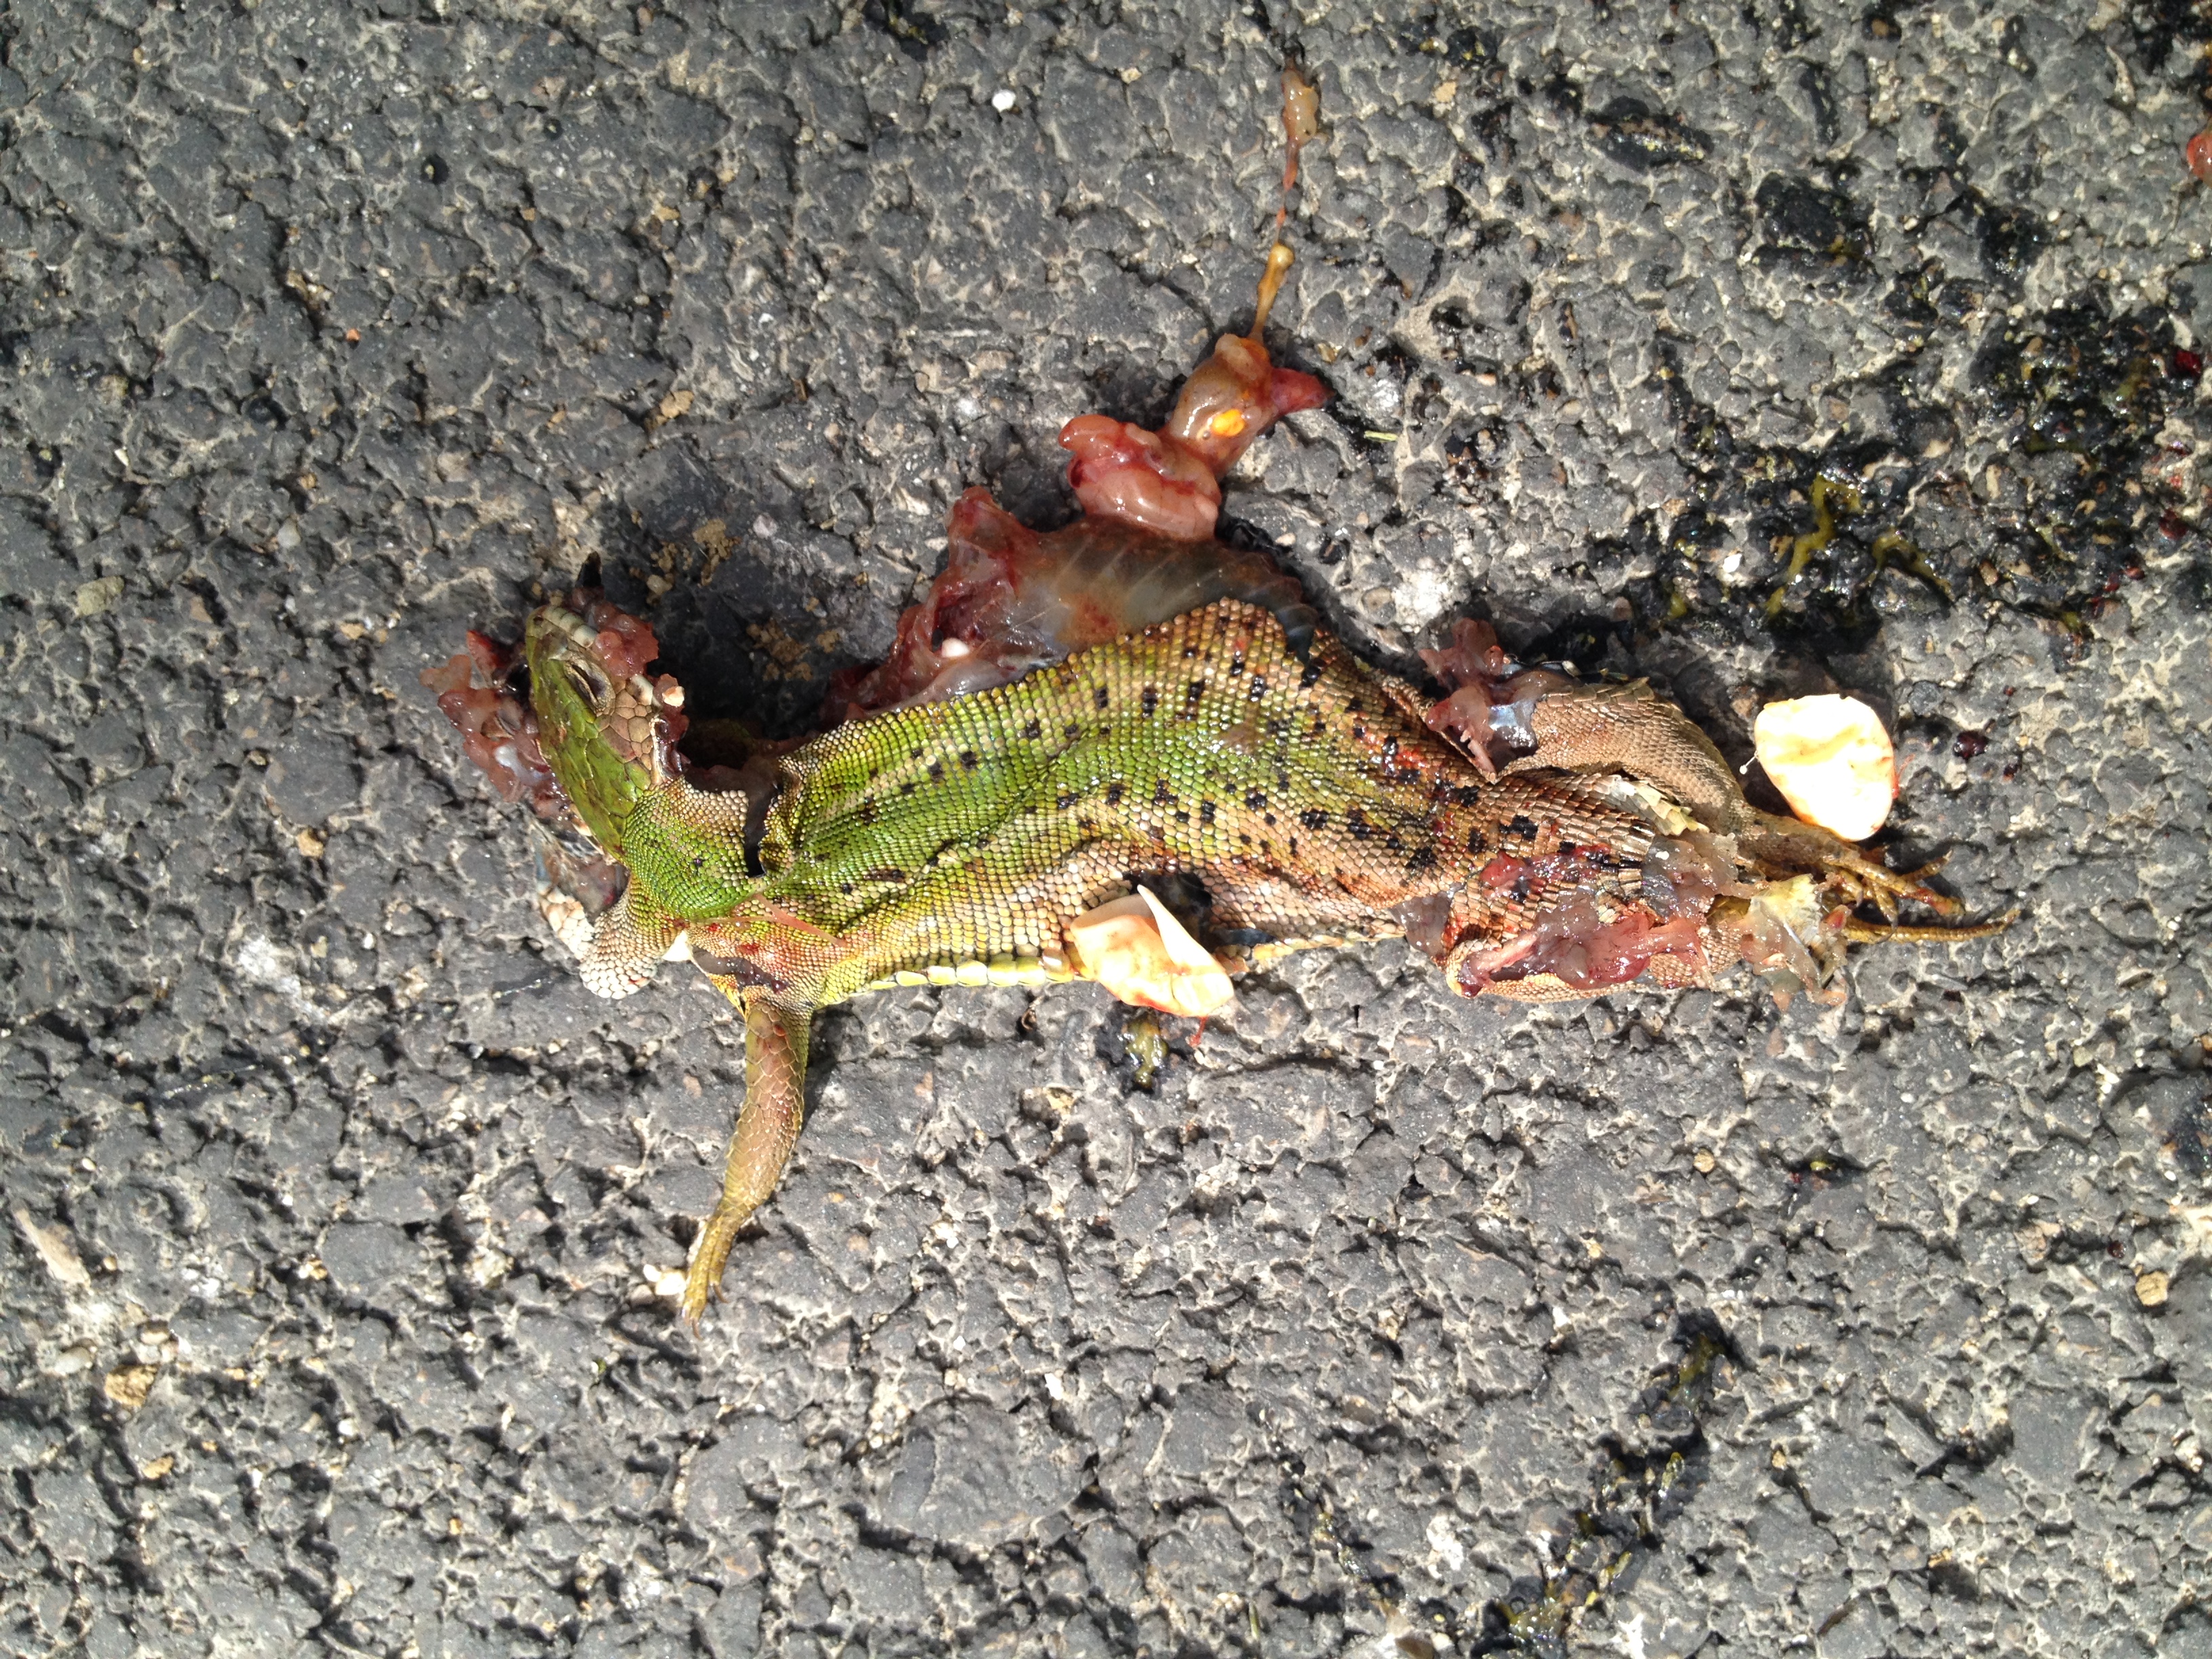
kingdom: Animalia
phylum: Chordata
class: Squamata
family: Lacertidae
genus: Lacerta
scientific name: Lacerta viridis
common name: European green lizard
